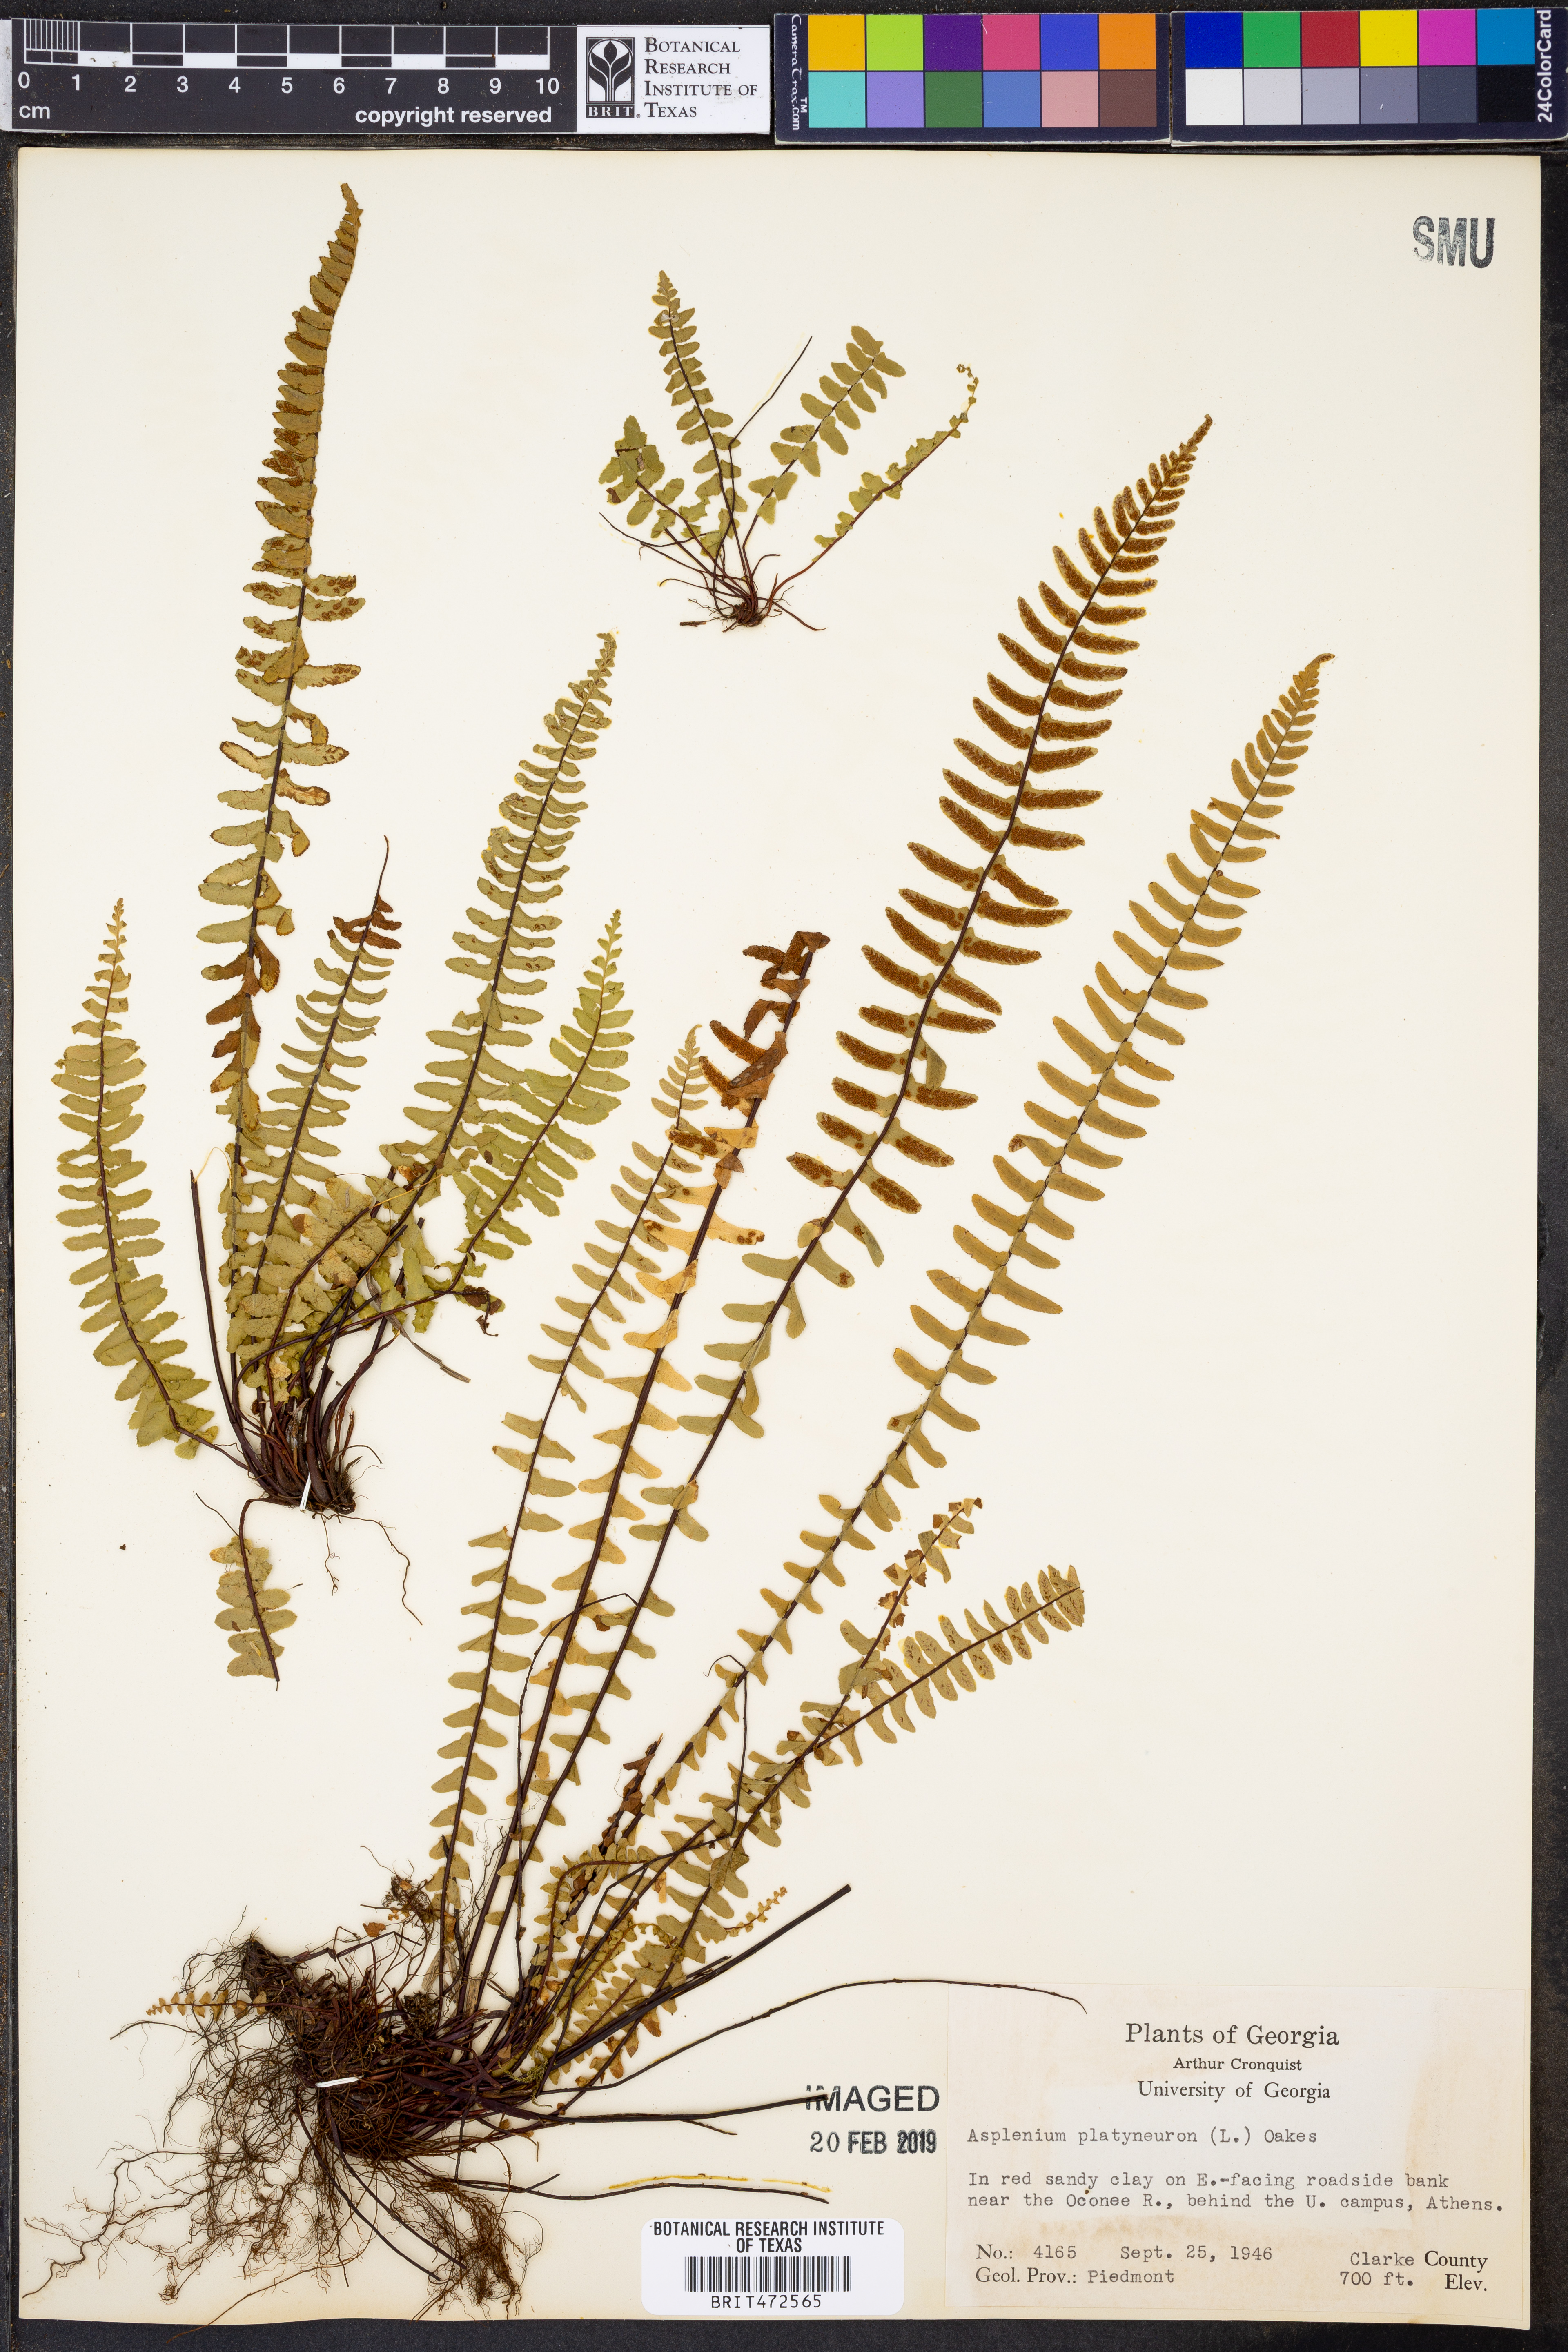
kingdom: Plantae
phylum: Tracheophyta
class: Polypodiopsida
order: Polypodiales
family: Aspleniaceae
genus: Asplenium
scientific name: Asplenium platyneuron
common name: Ebony spleenwort
